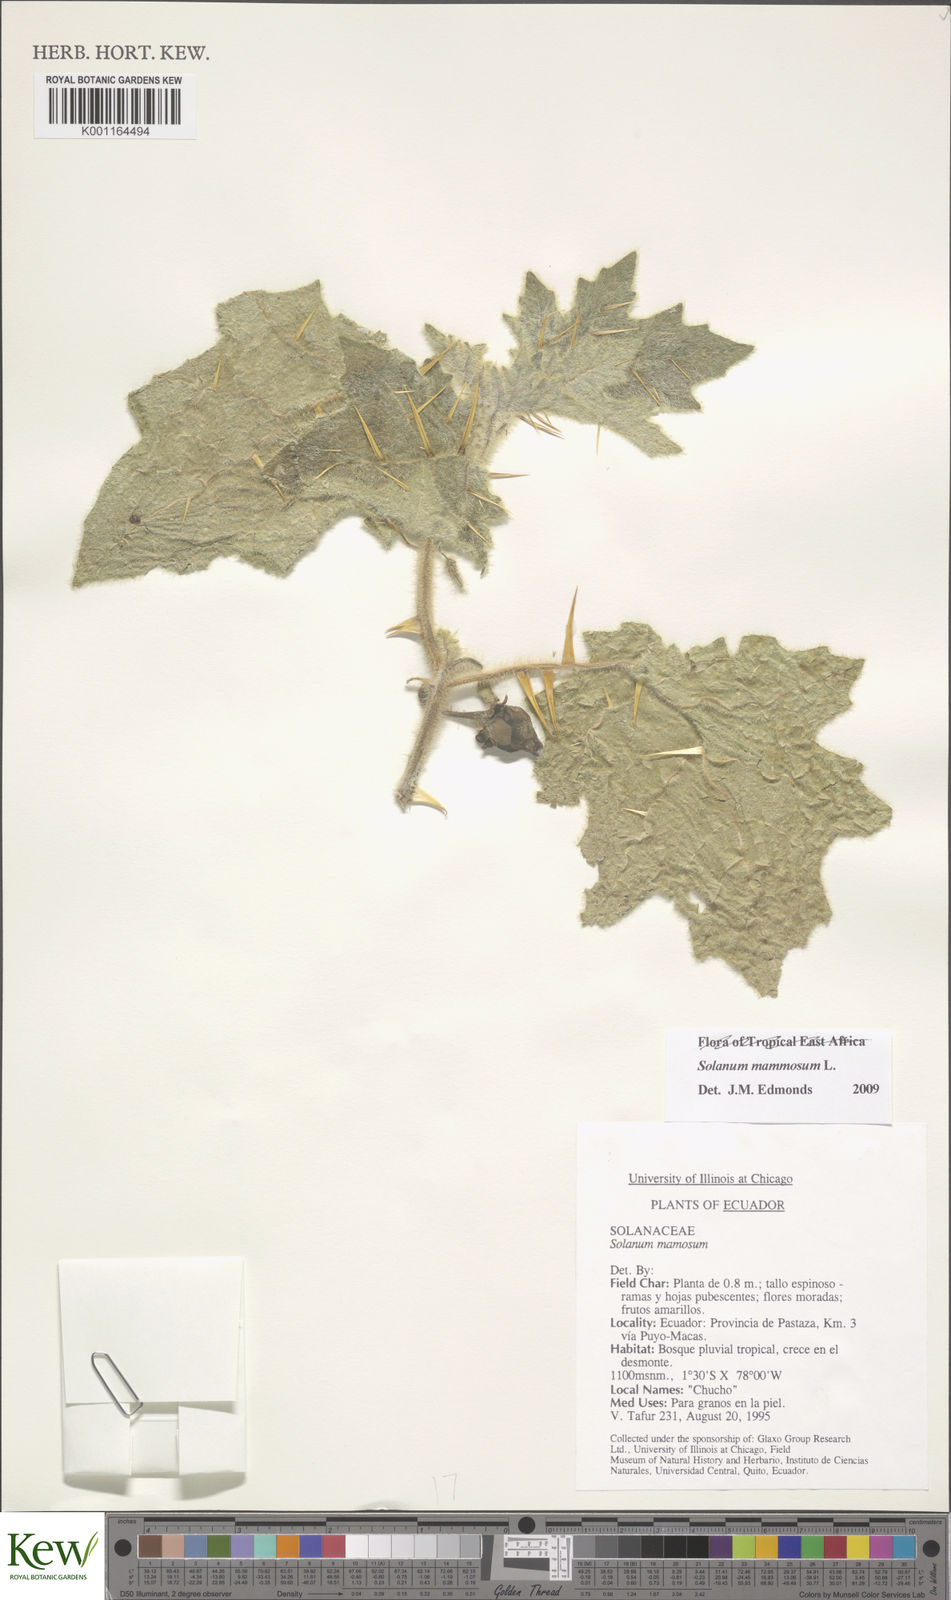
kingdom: Plantae
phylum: Tracheophyta
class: Magnoliopsida
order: Solanales
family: Solanaceae
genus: Solanum
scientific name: Solanum mammosum
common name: Nipple fruit
